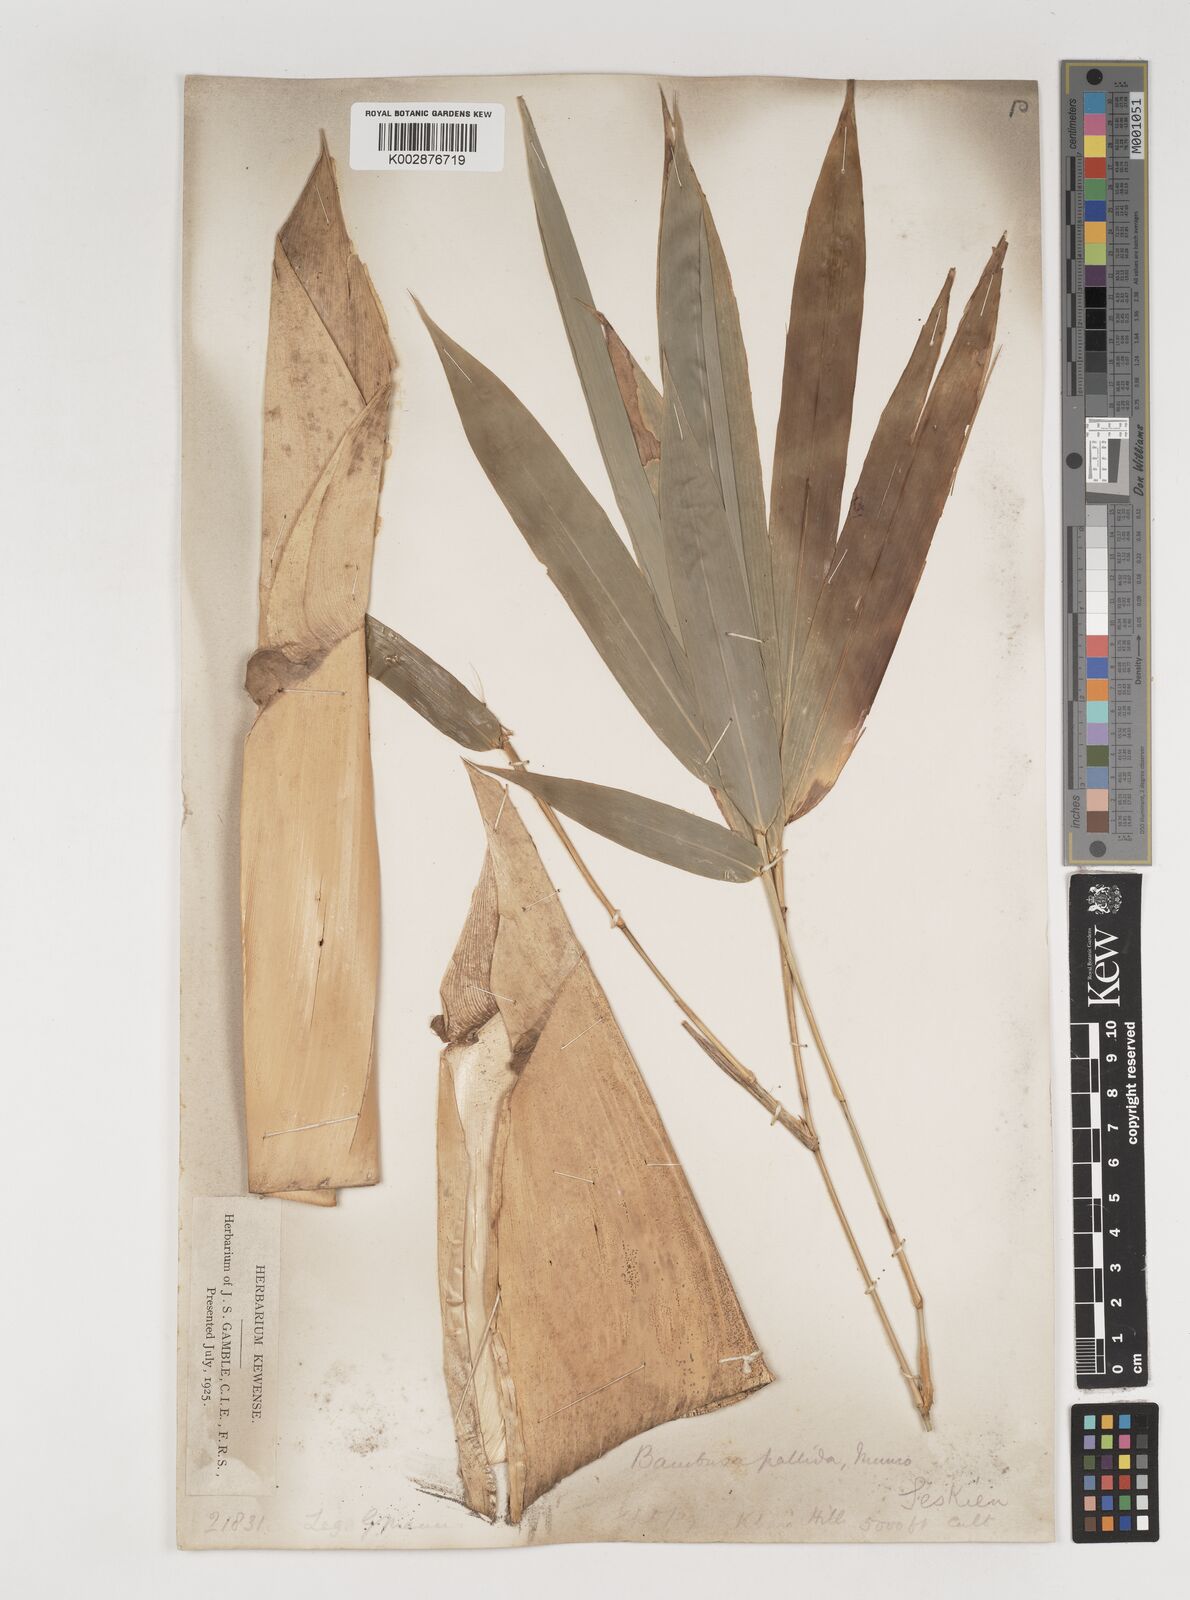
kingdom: Plantae
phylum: Tracheophyta
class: Liliopsida
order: Poales
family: Poaceae
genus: Bambusa
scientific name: Bambusa pallida
